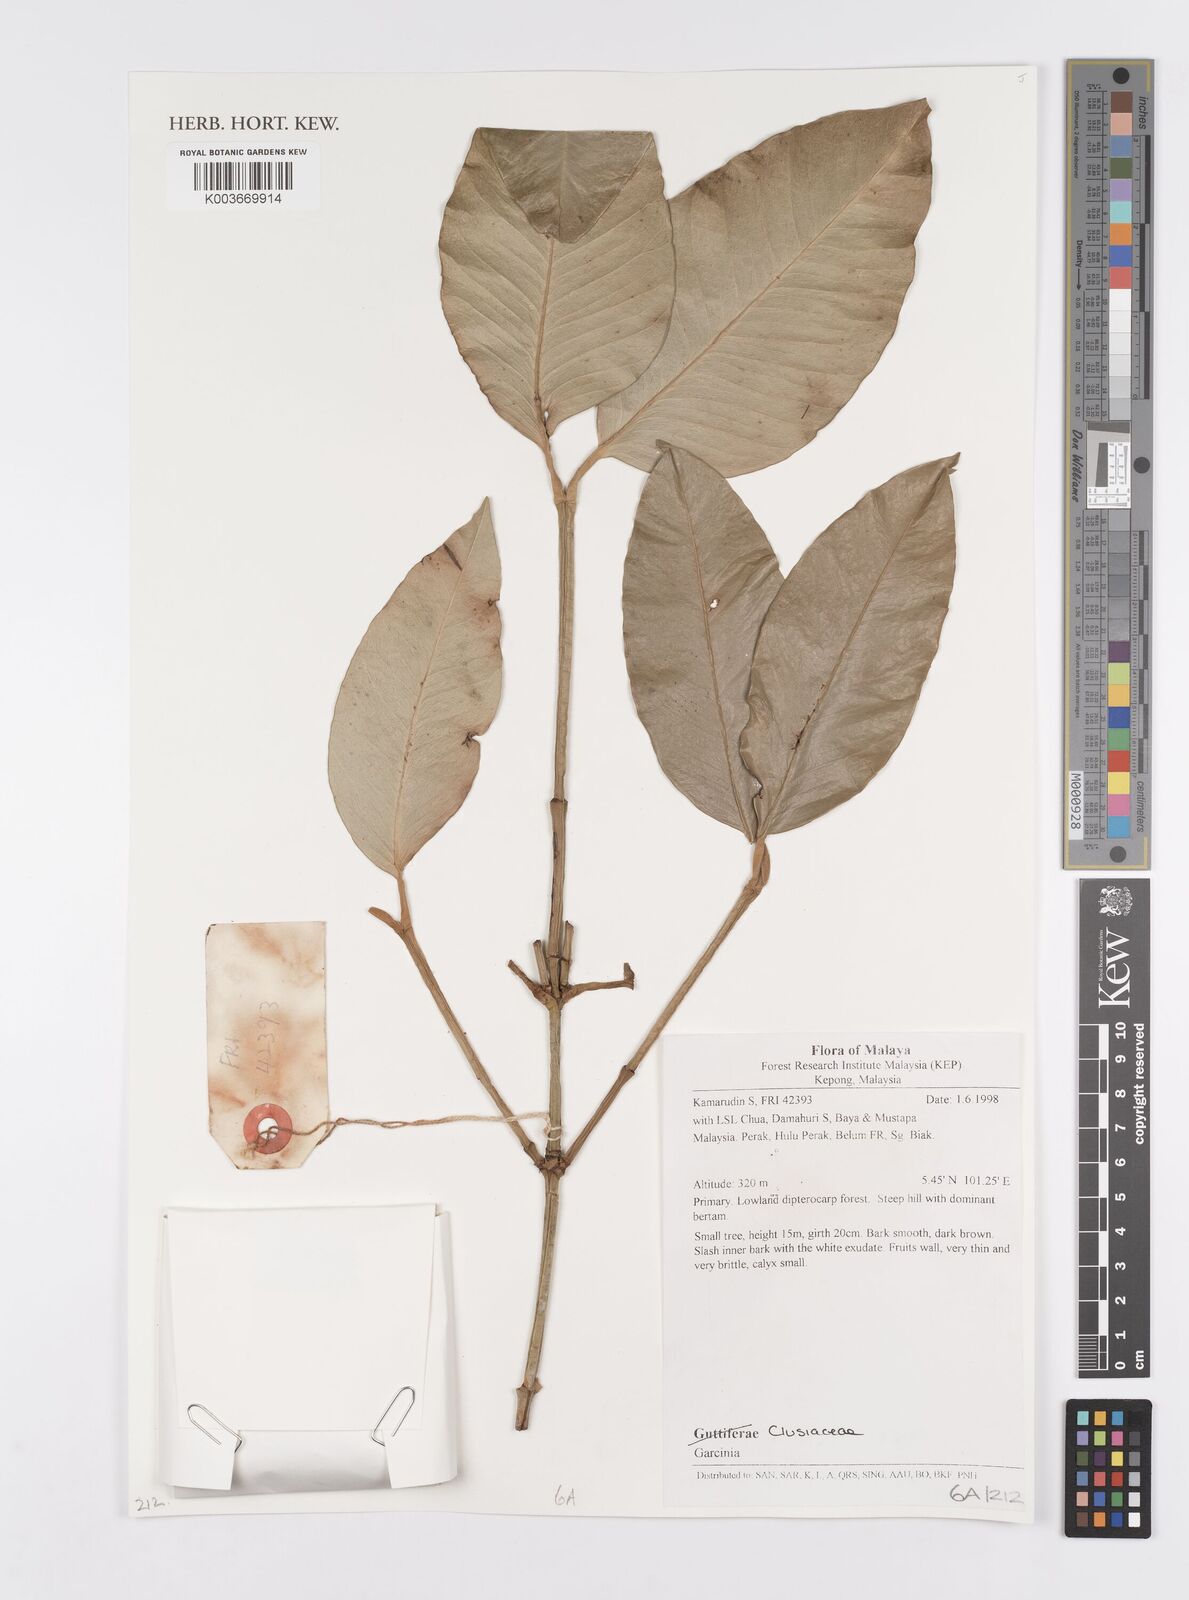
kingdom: Plantae
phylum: Tracheophyta
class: Magnoliopsida
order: Malpighiales
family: Clusiaceae
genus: Garcinia
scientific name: Garcinia
